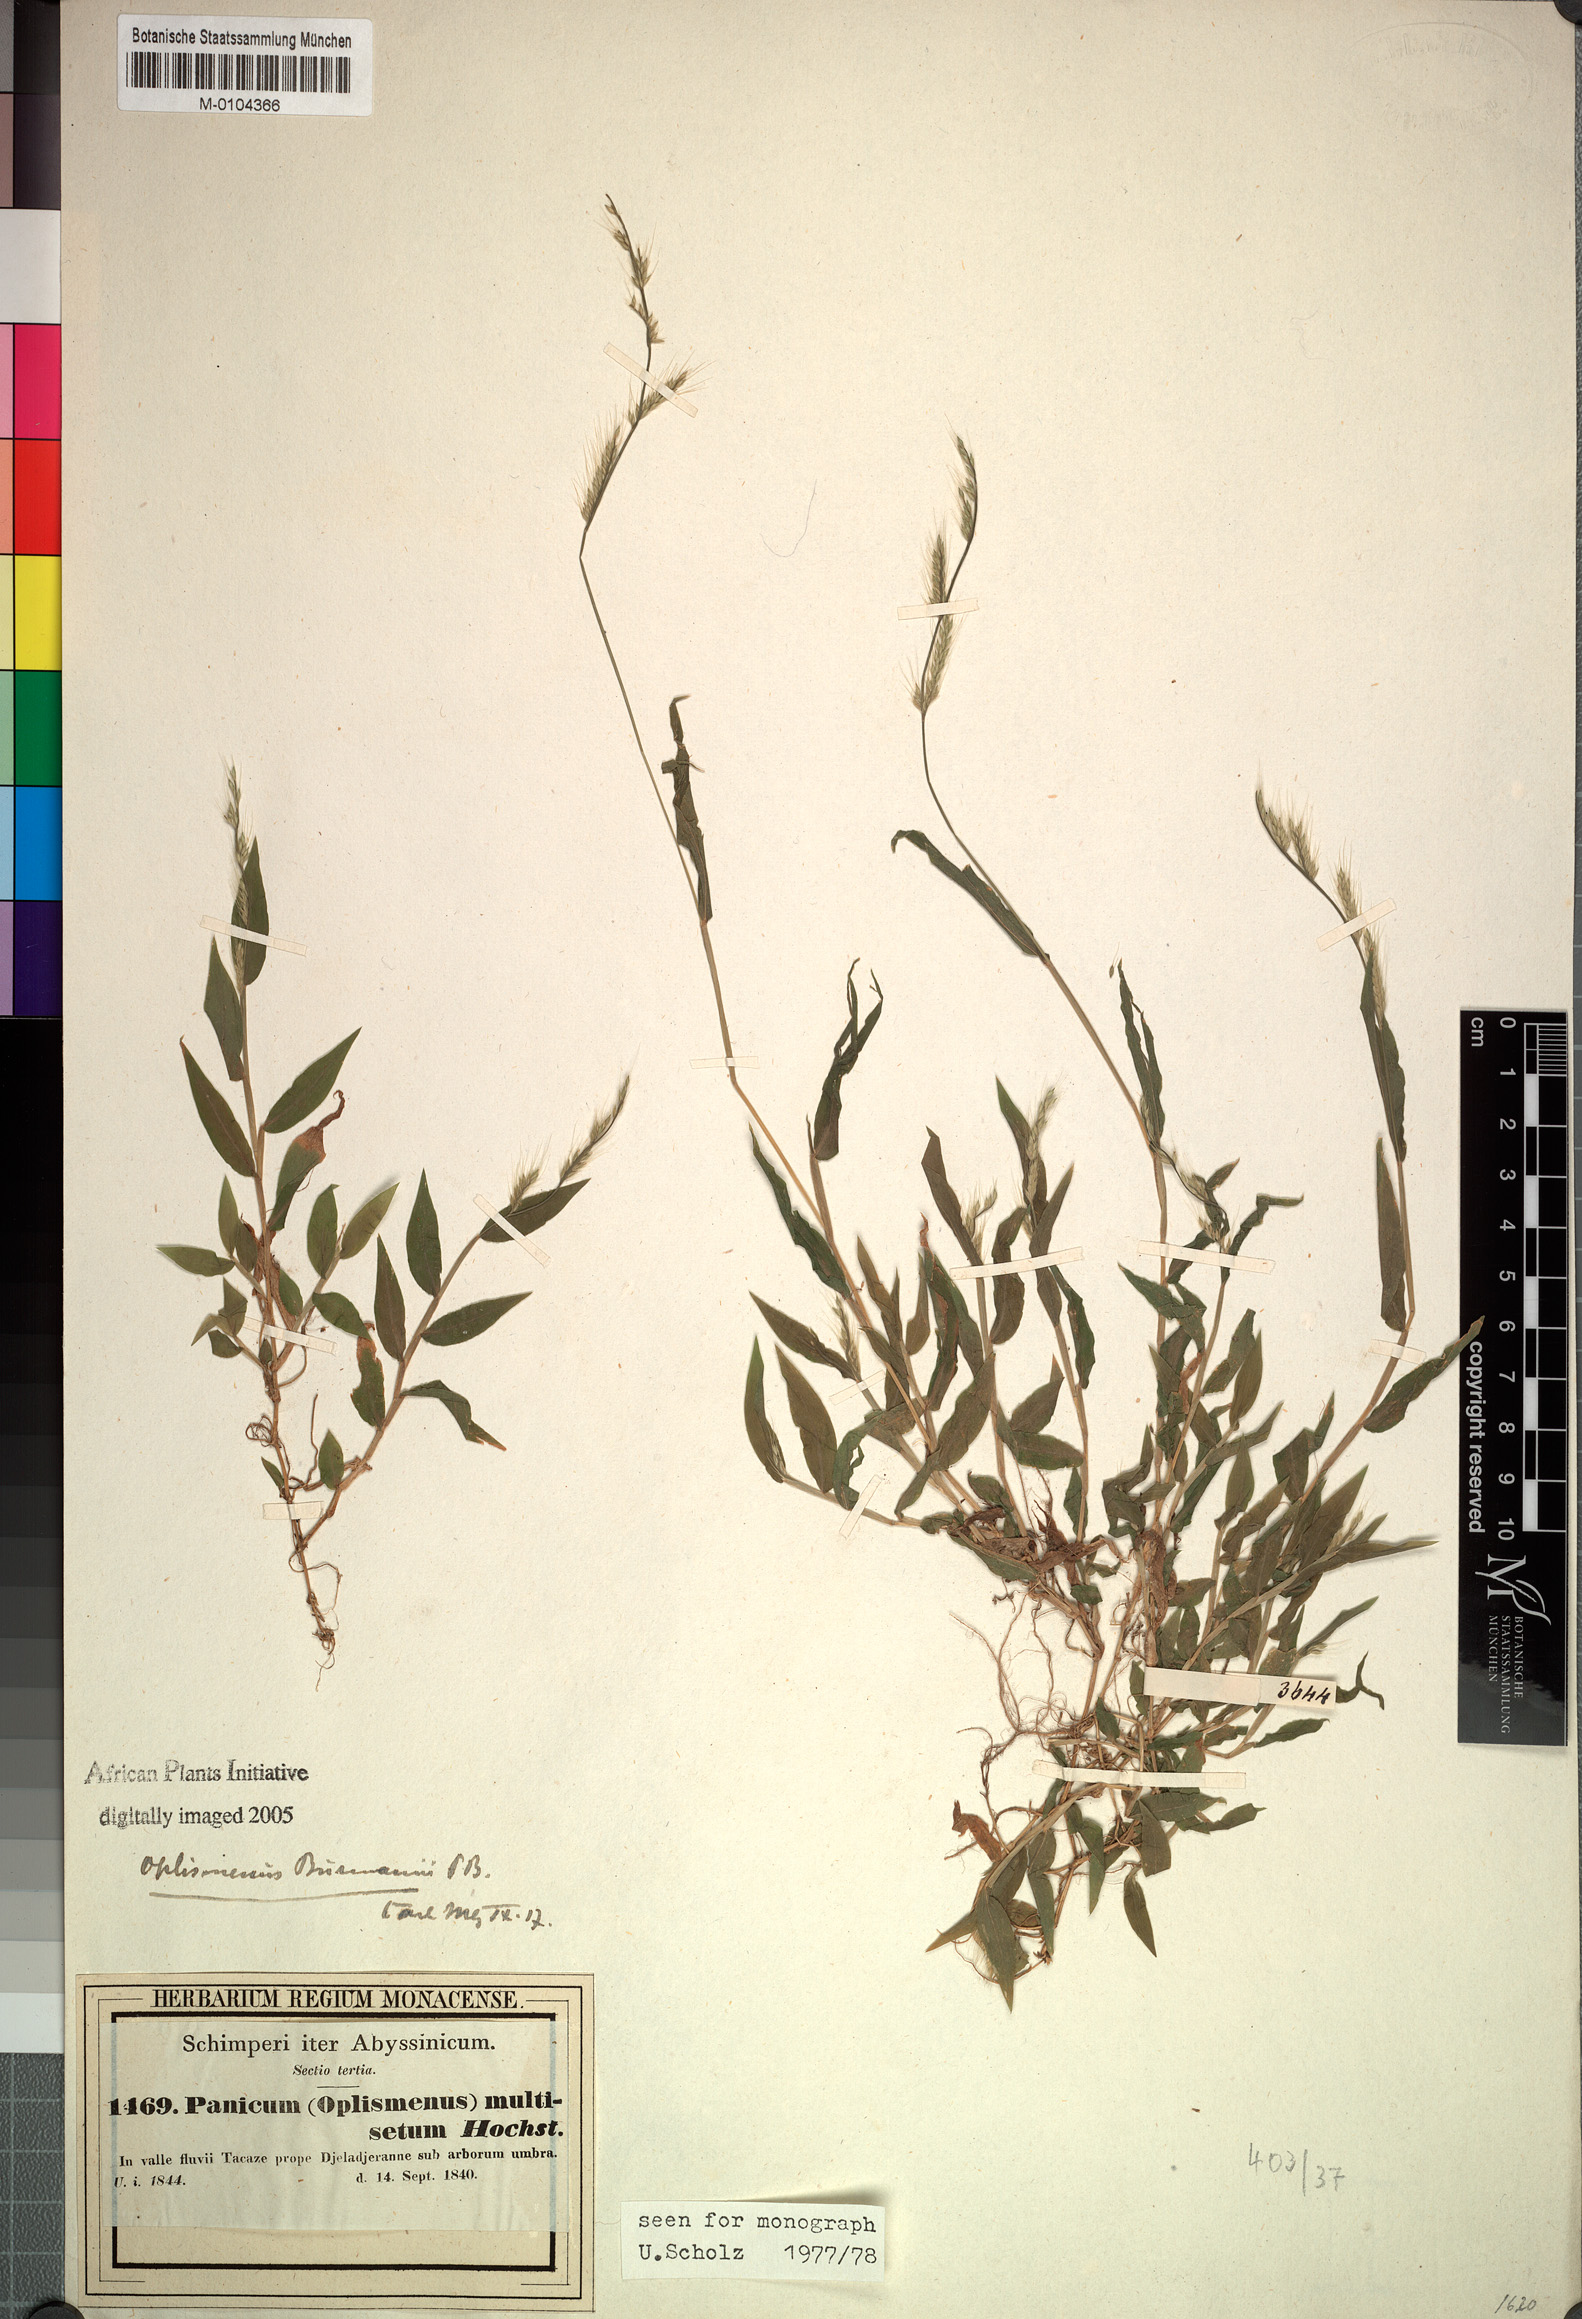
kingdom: Plantae
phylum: Tracheophyta
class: Liliopsida
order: Poales
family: Poaceae
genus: Oplismenus
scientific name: Oplismenus burmanni
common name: Burmann's basketgrass
